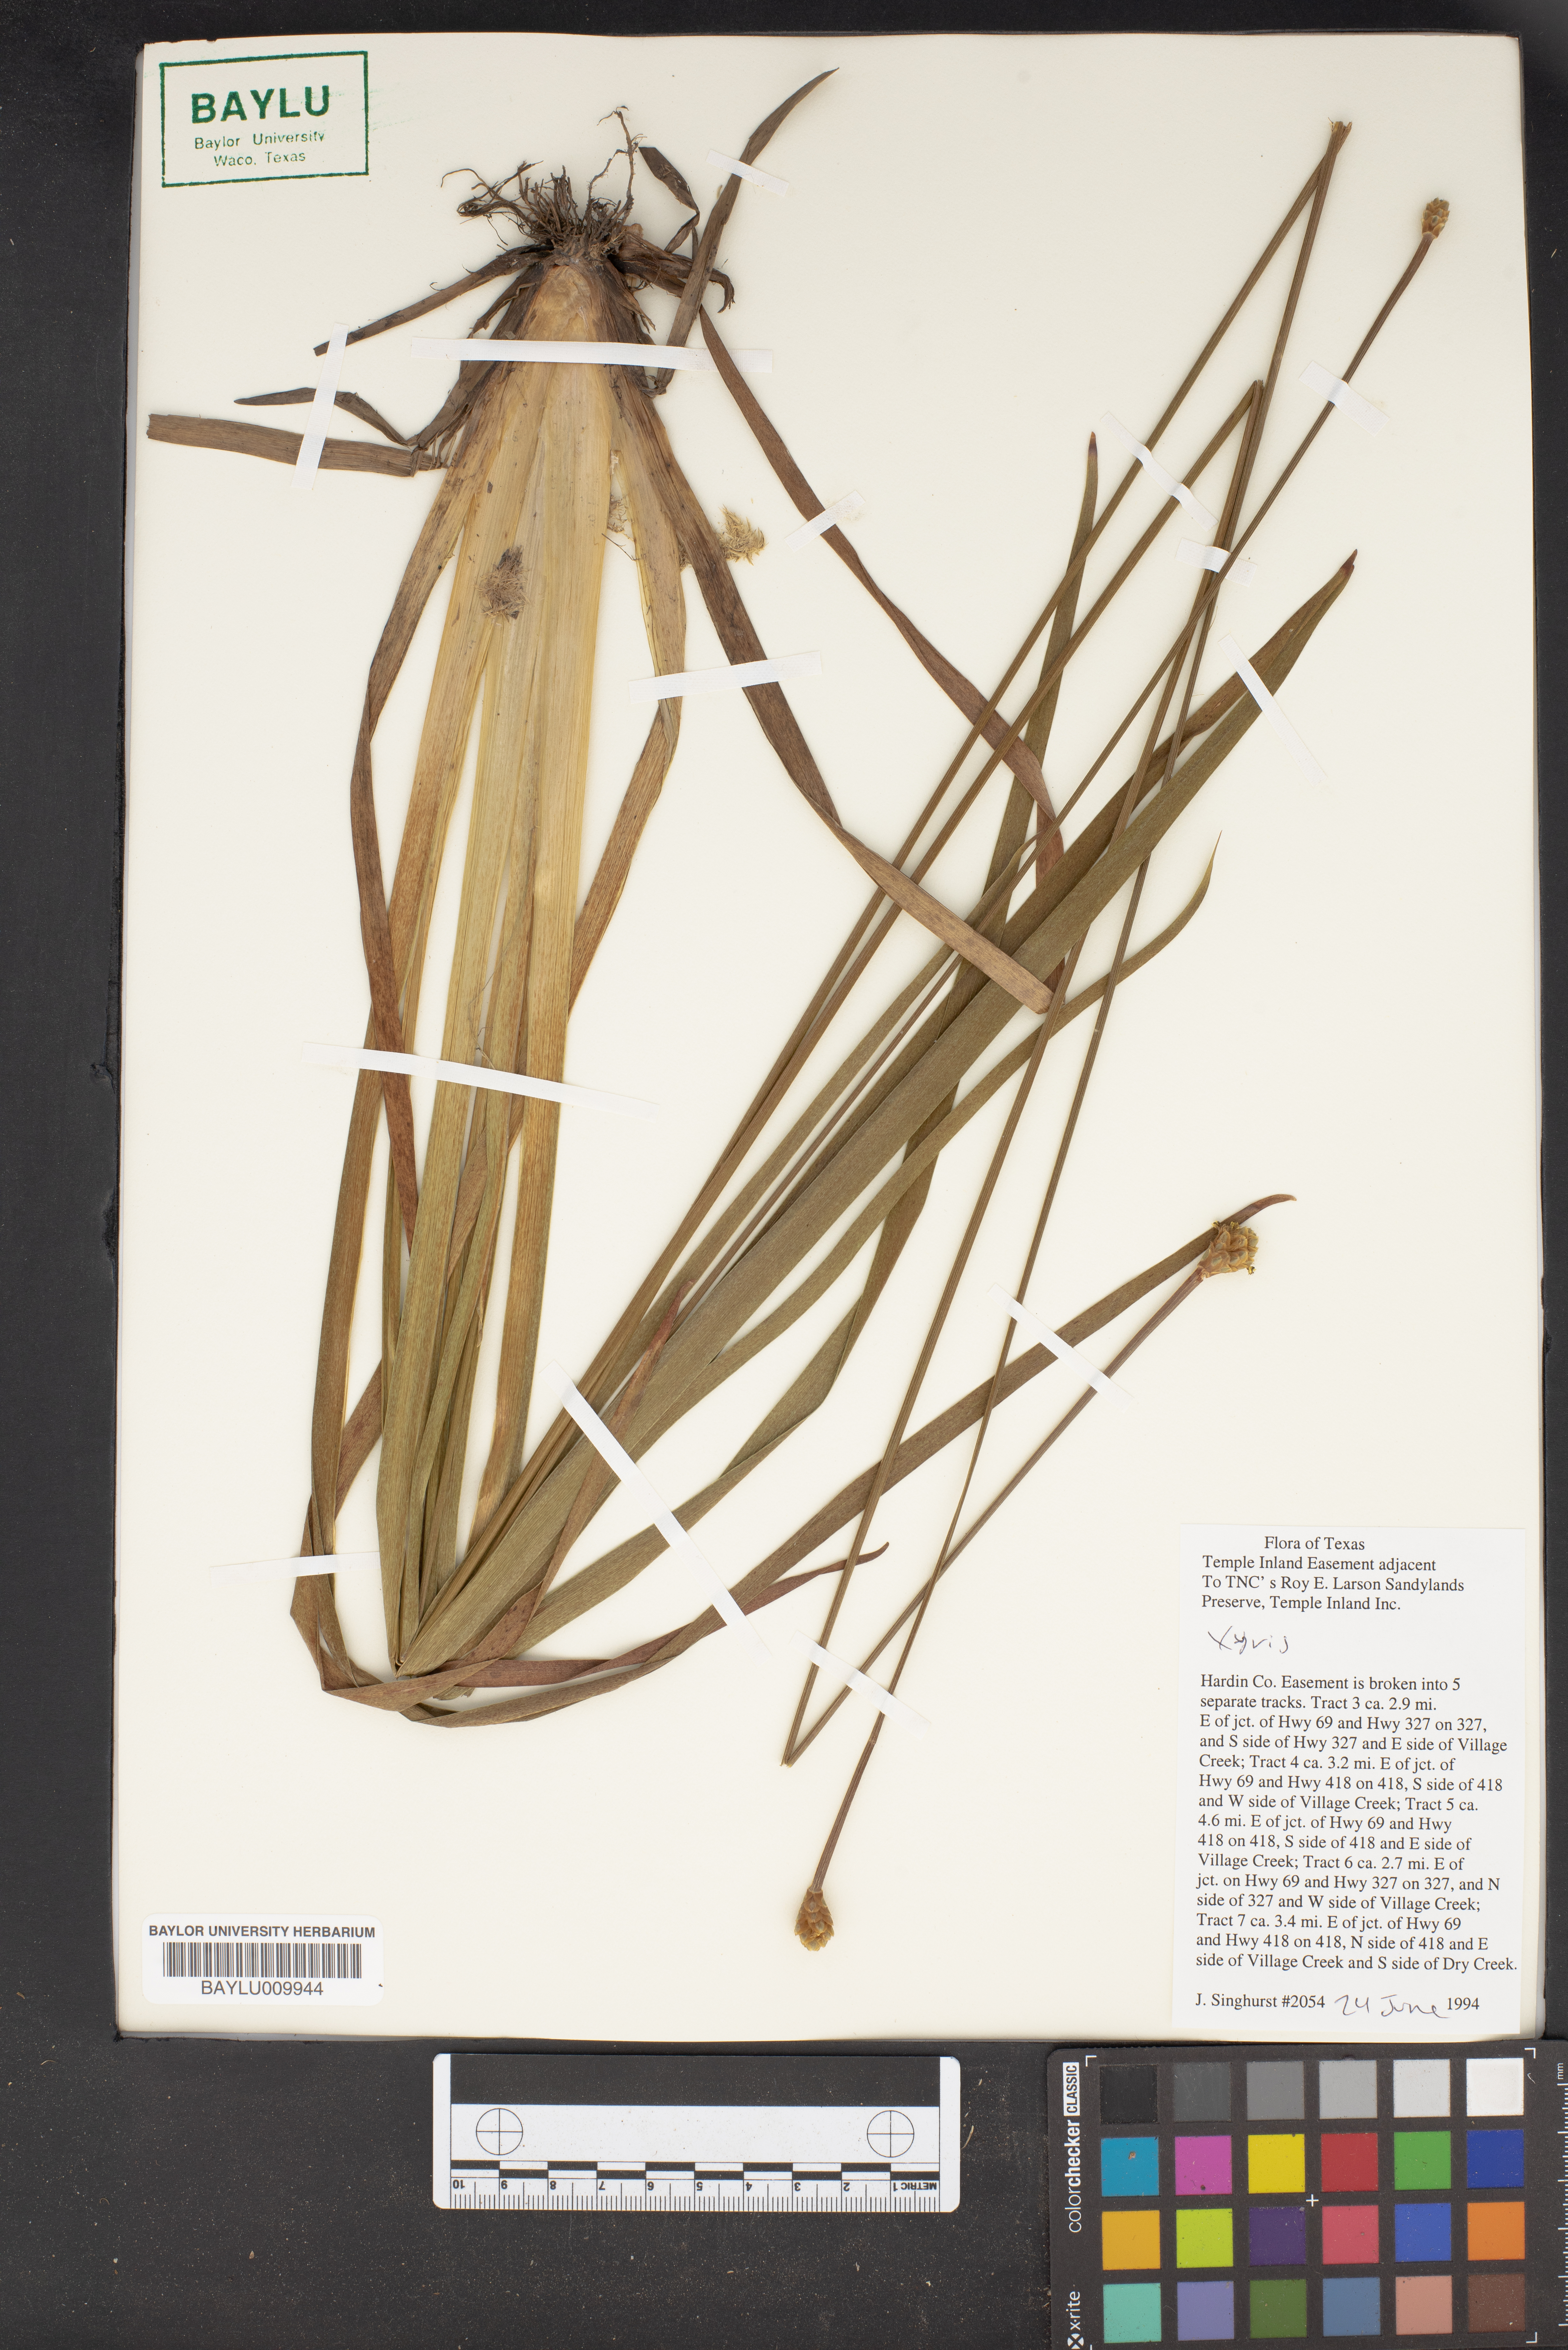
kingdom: Plantae
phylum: Tracheophyta
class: Liliopsida
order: Poales
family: Xyridaceae
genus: Xyris
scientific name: Xyris
